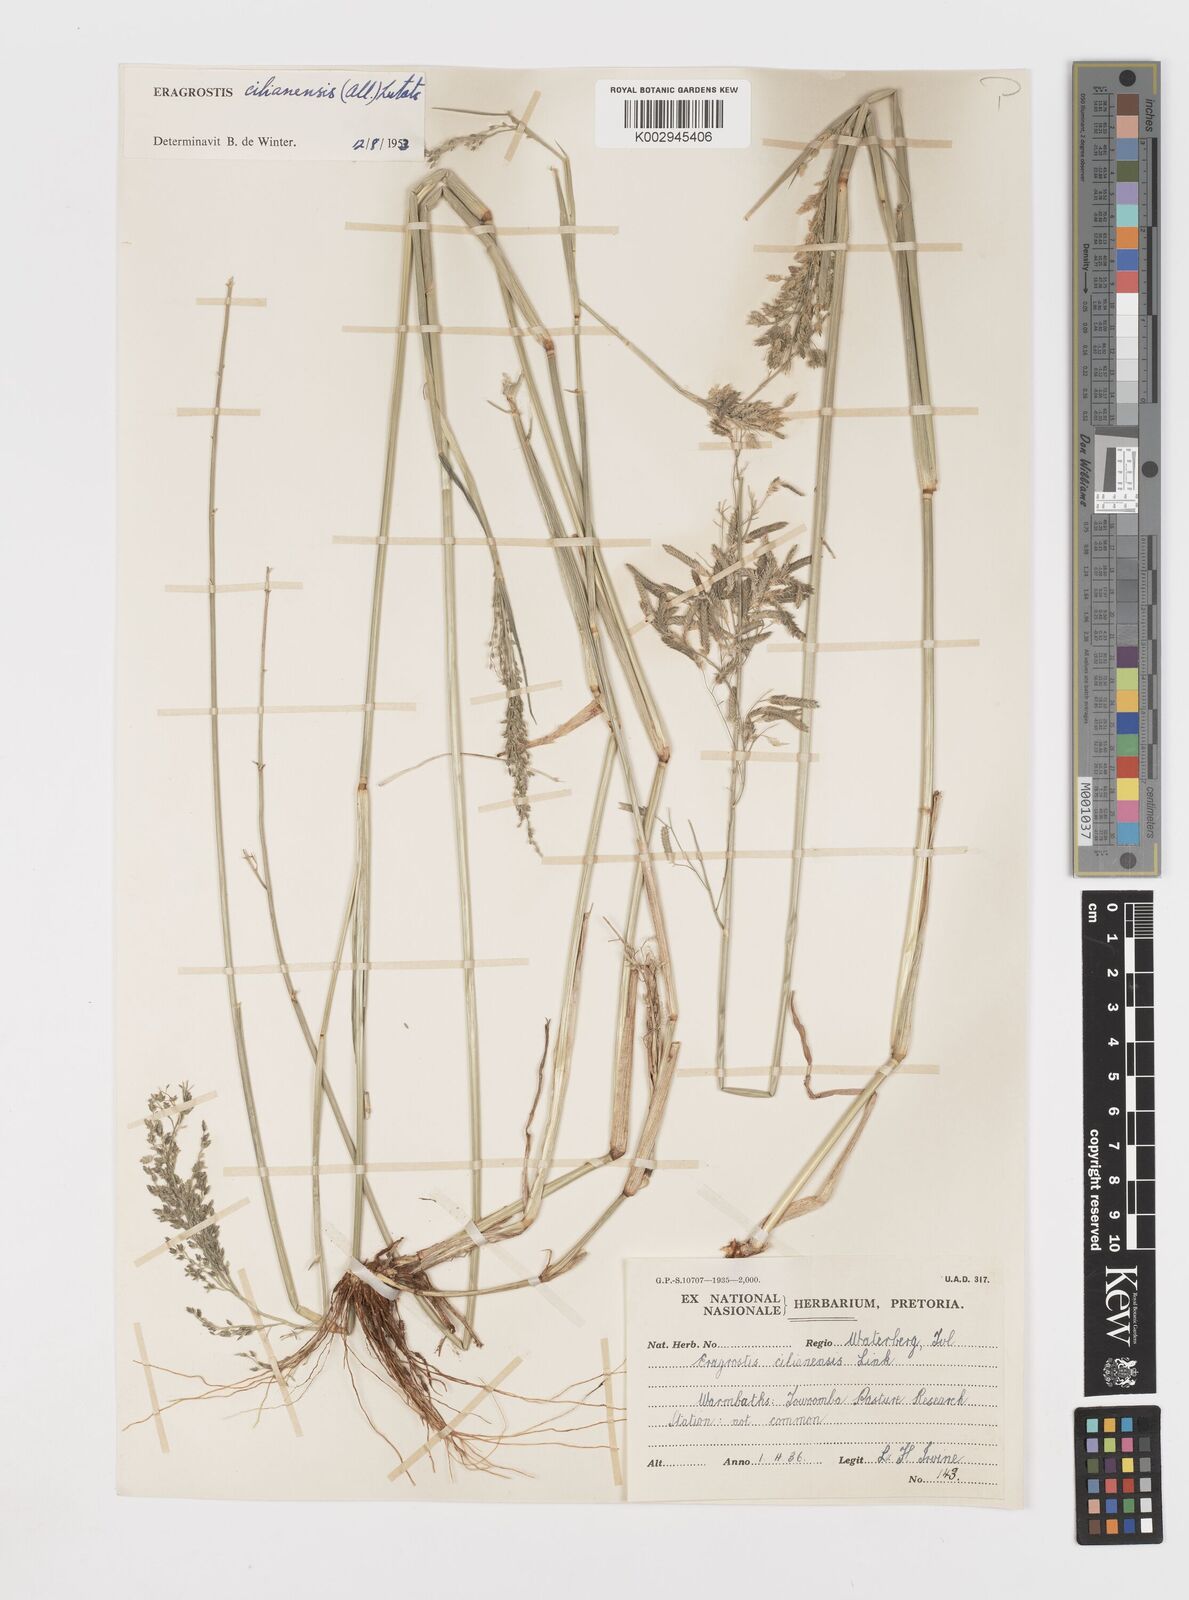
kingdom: Plantae
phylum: Tracheophyta
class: Liliopsida
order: Poales
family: Poaceae
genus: Eragrostis
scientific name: Eragrostis cilianensis
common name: Stinkgrass
